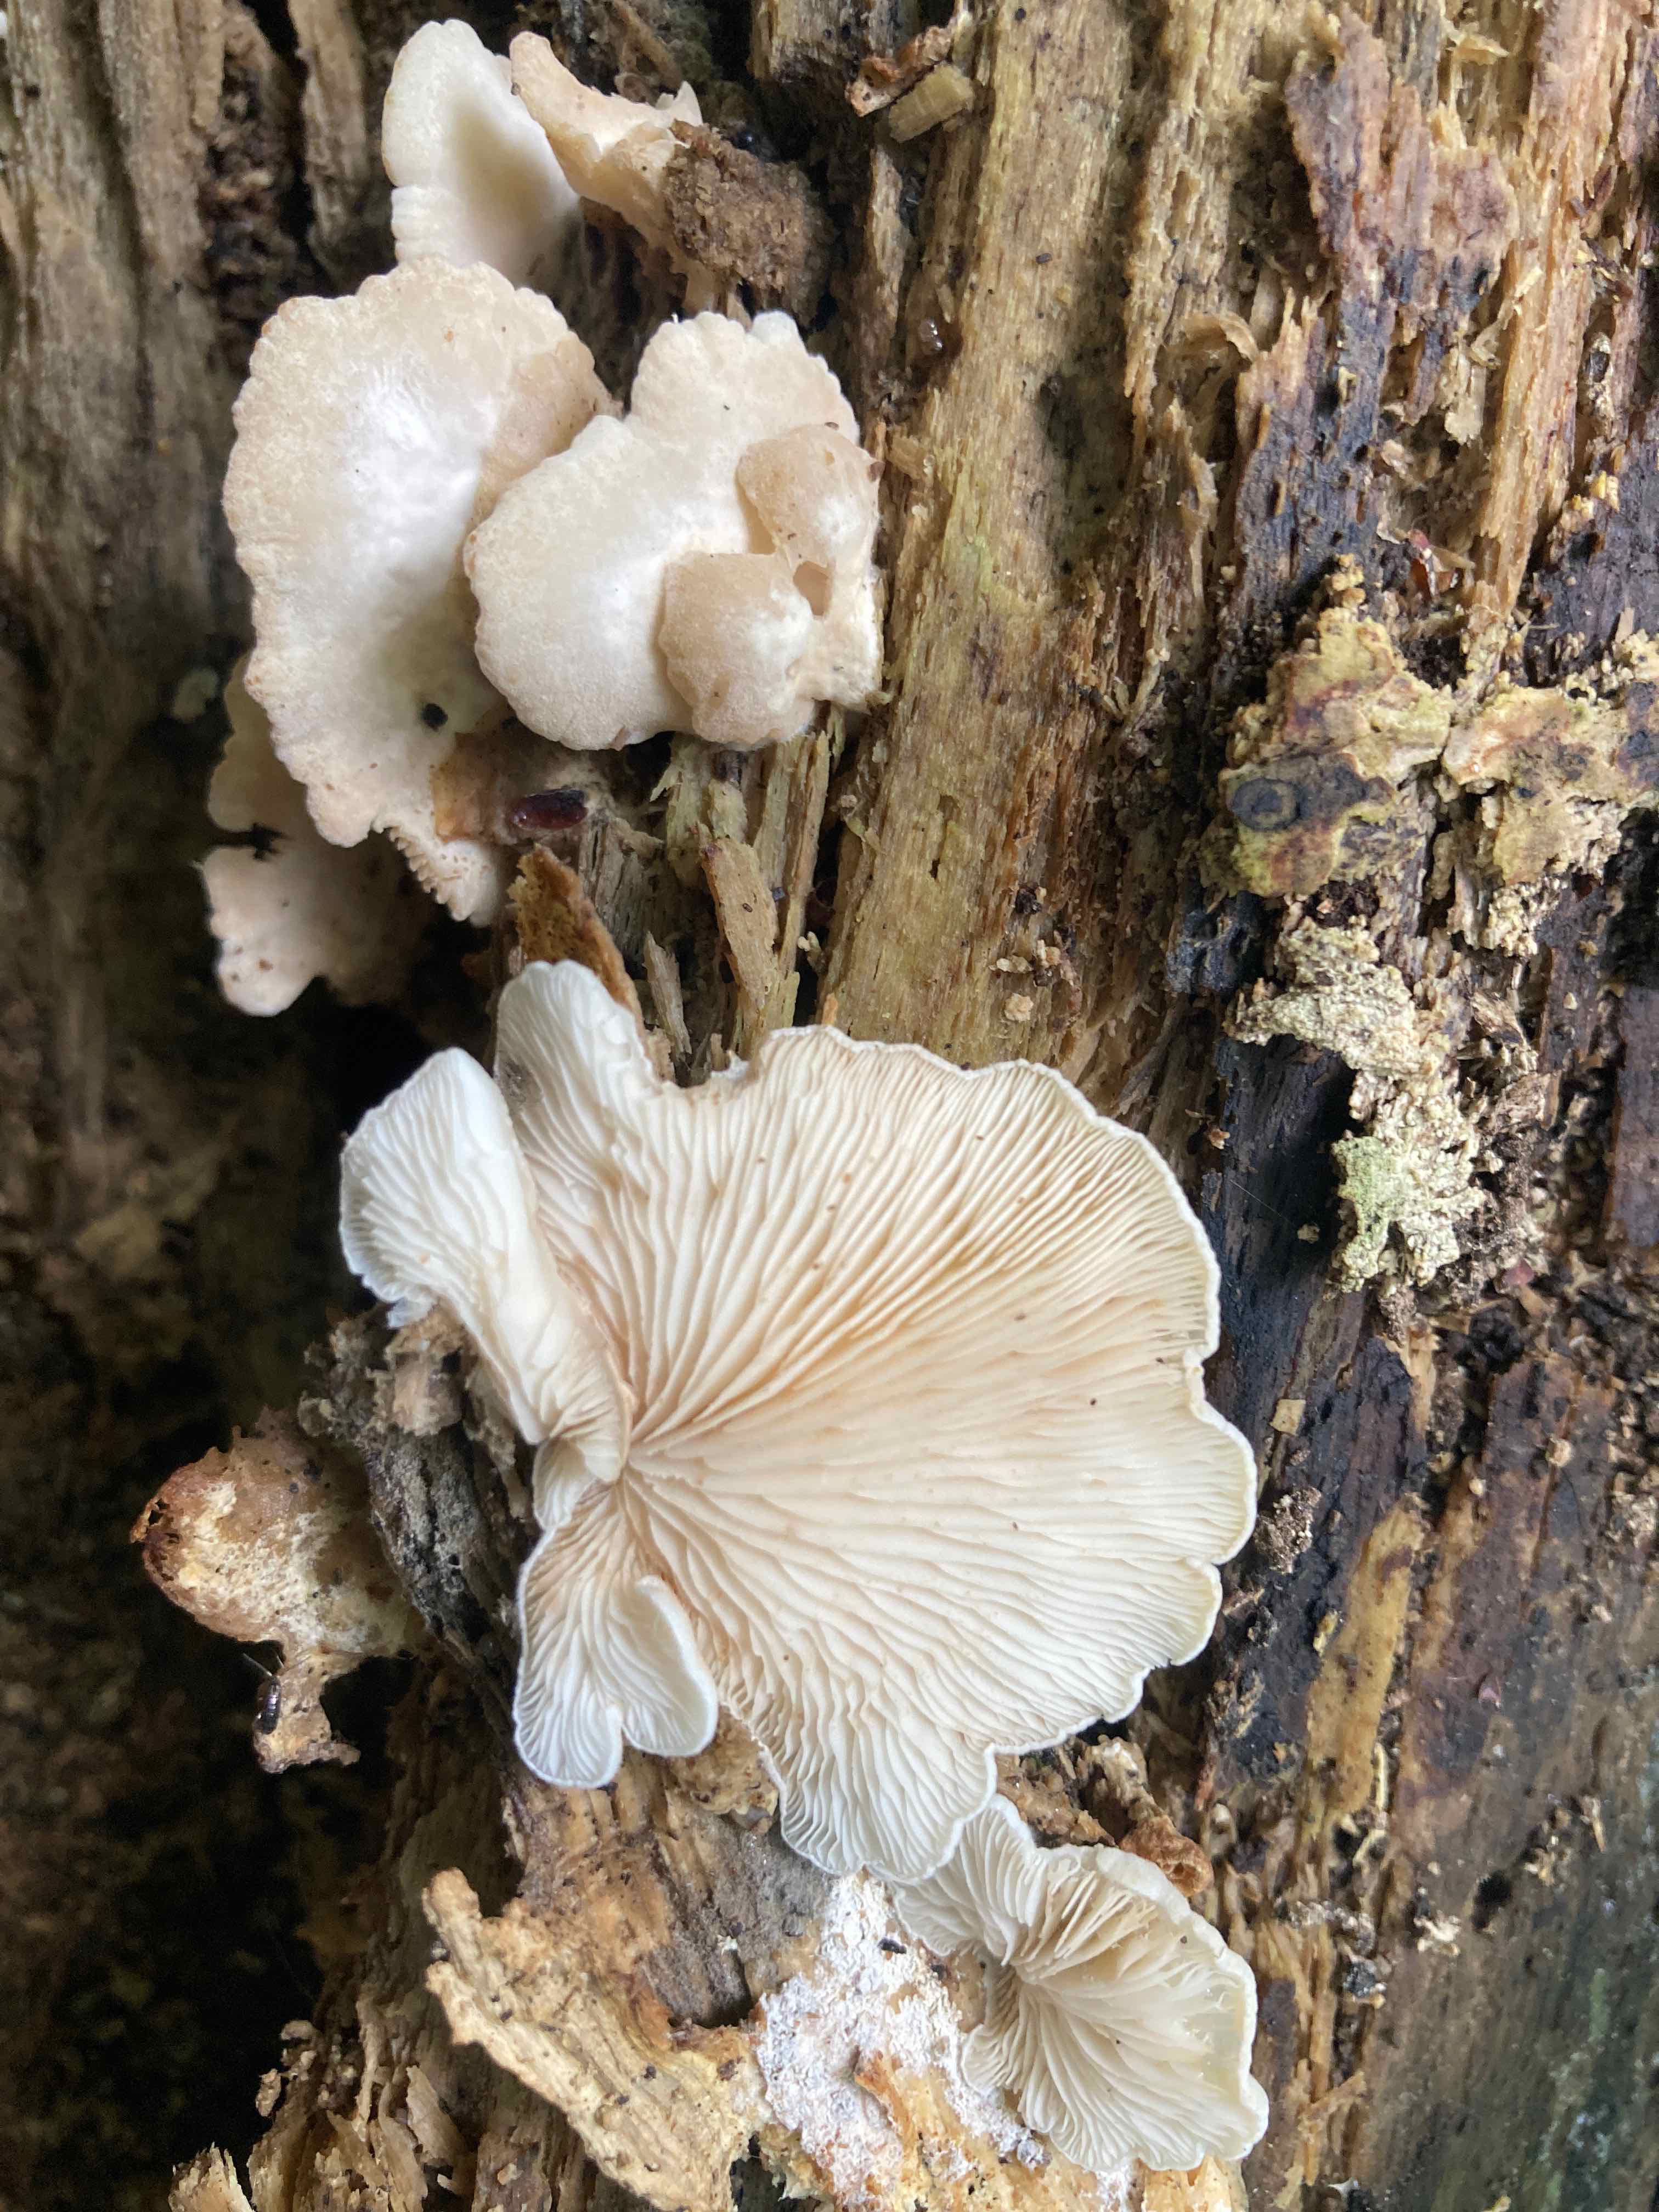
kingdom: Fungi
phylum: Basidiomycota
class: Agaricomycetes
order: Agaricales
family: Entolomataceae
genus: Clitopilus
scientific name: Clitopilus hobsonii
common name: Miller's oysterling
